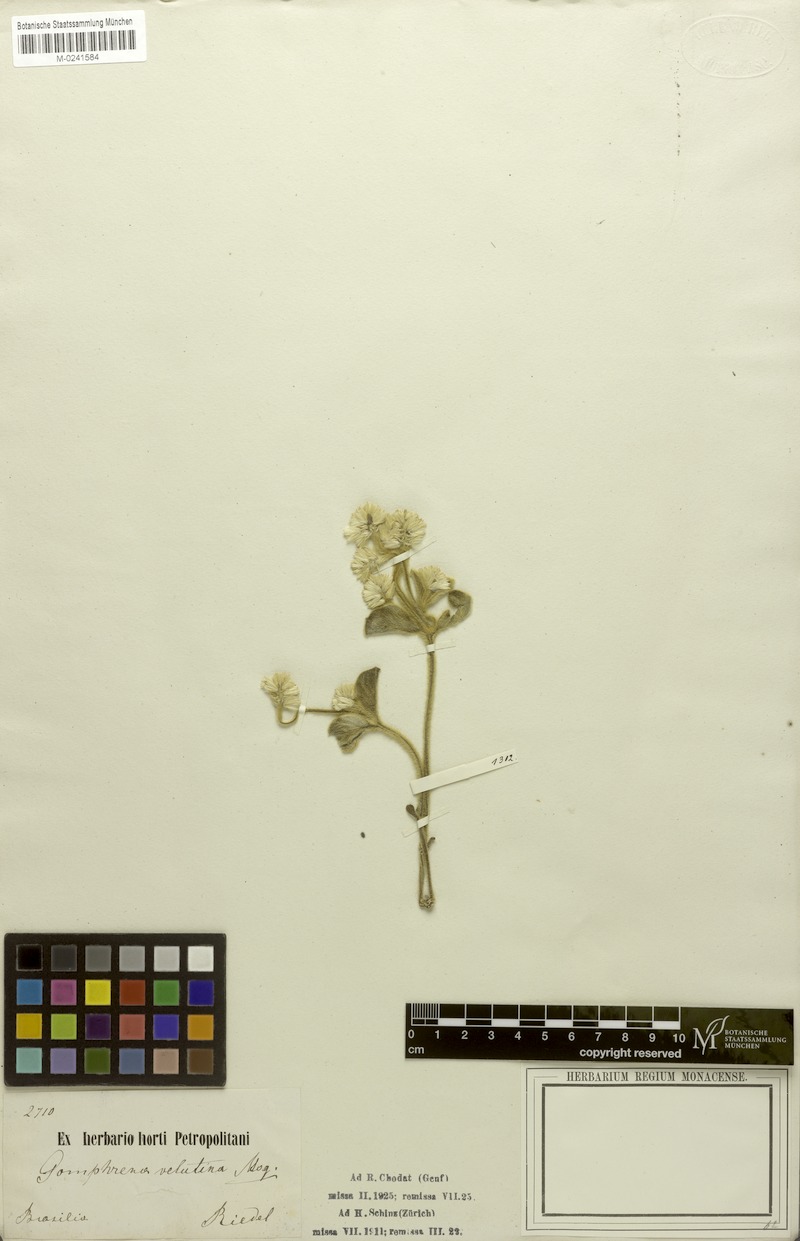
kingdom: Plantae
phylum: Tracheophyta
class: Magnoliopsida
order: Caryophyllales
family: Amaranthaceae
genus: Pfaffia
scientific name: Pfaffia velutina
